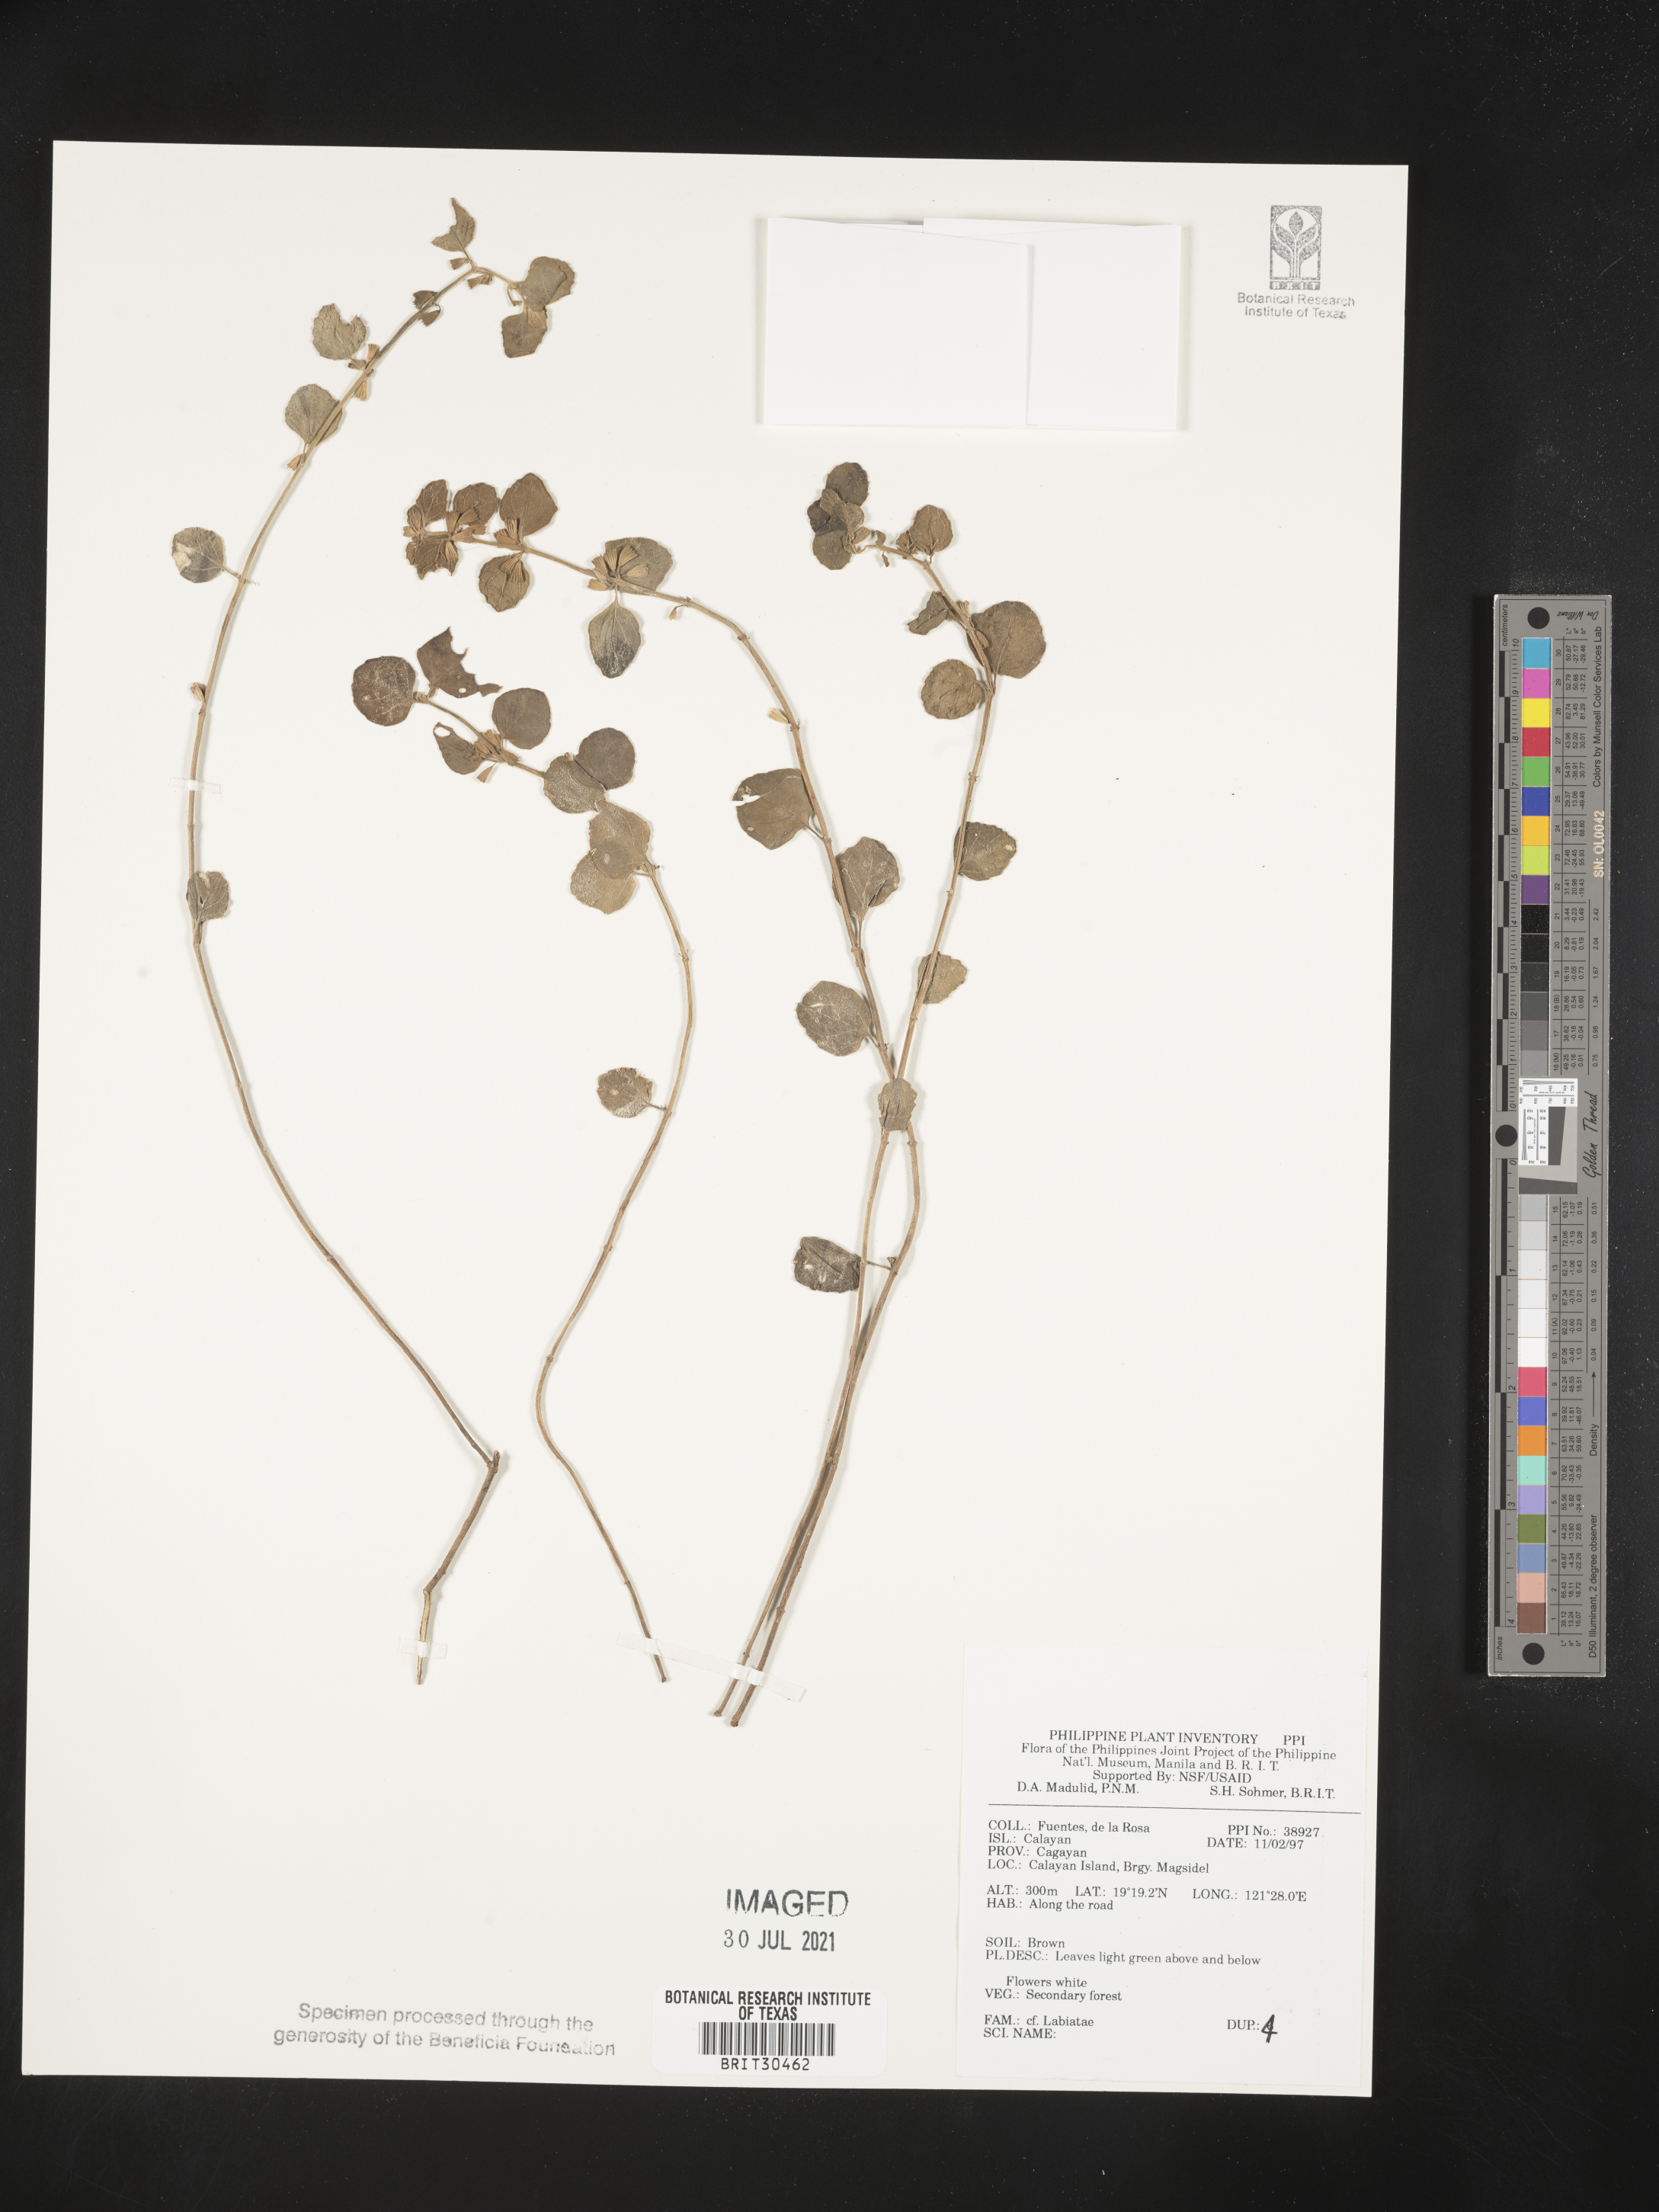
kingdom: Plantae
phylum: Tracheophyta
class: Magnoliopsida
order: Lamiales
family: Lamiaceae
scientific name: Lamiaceae
